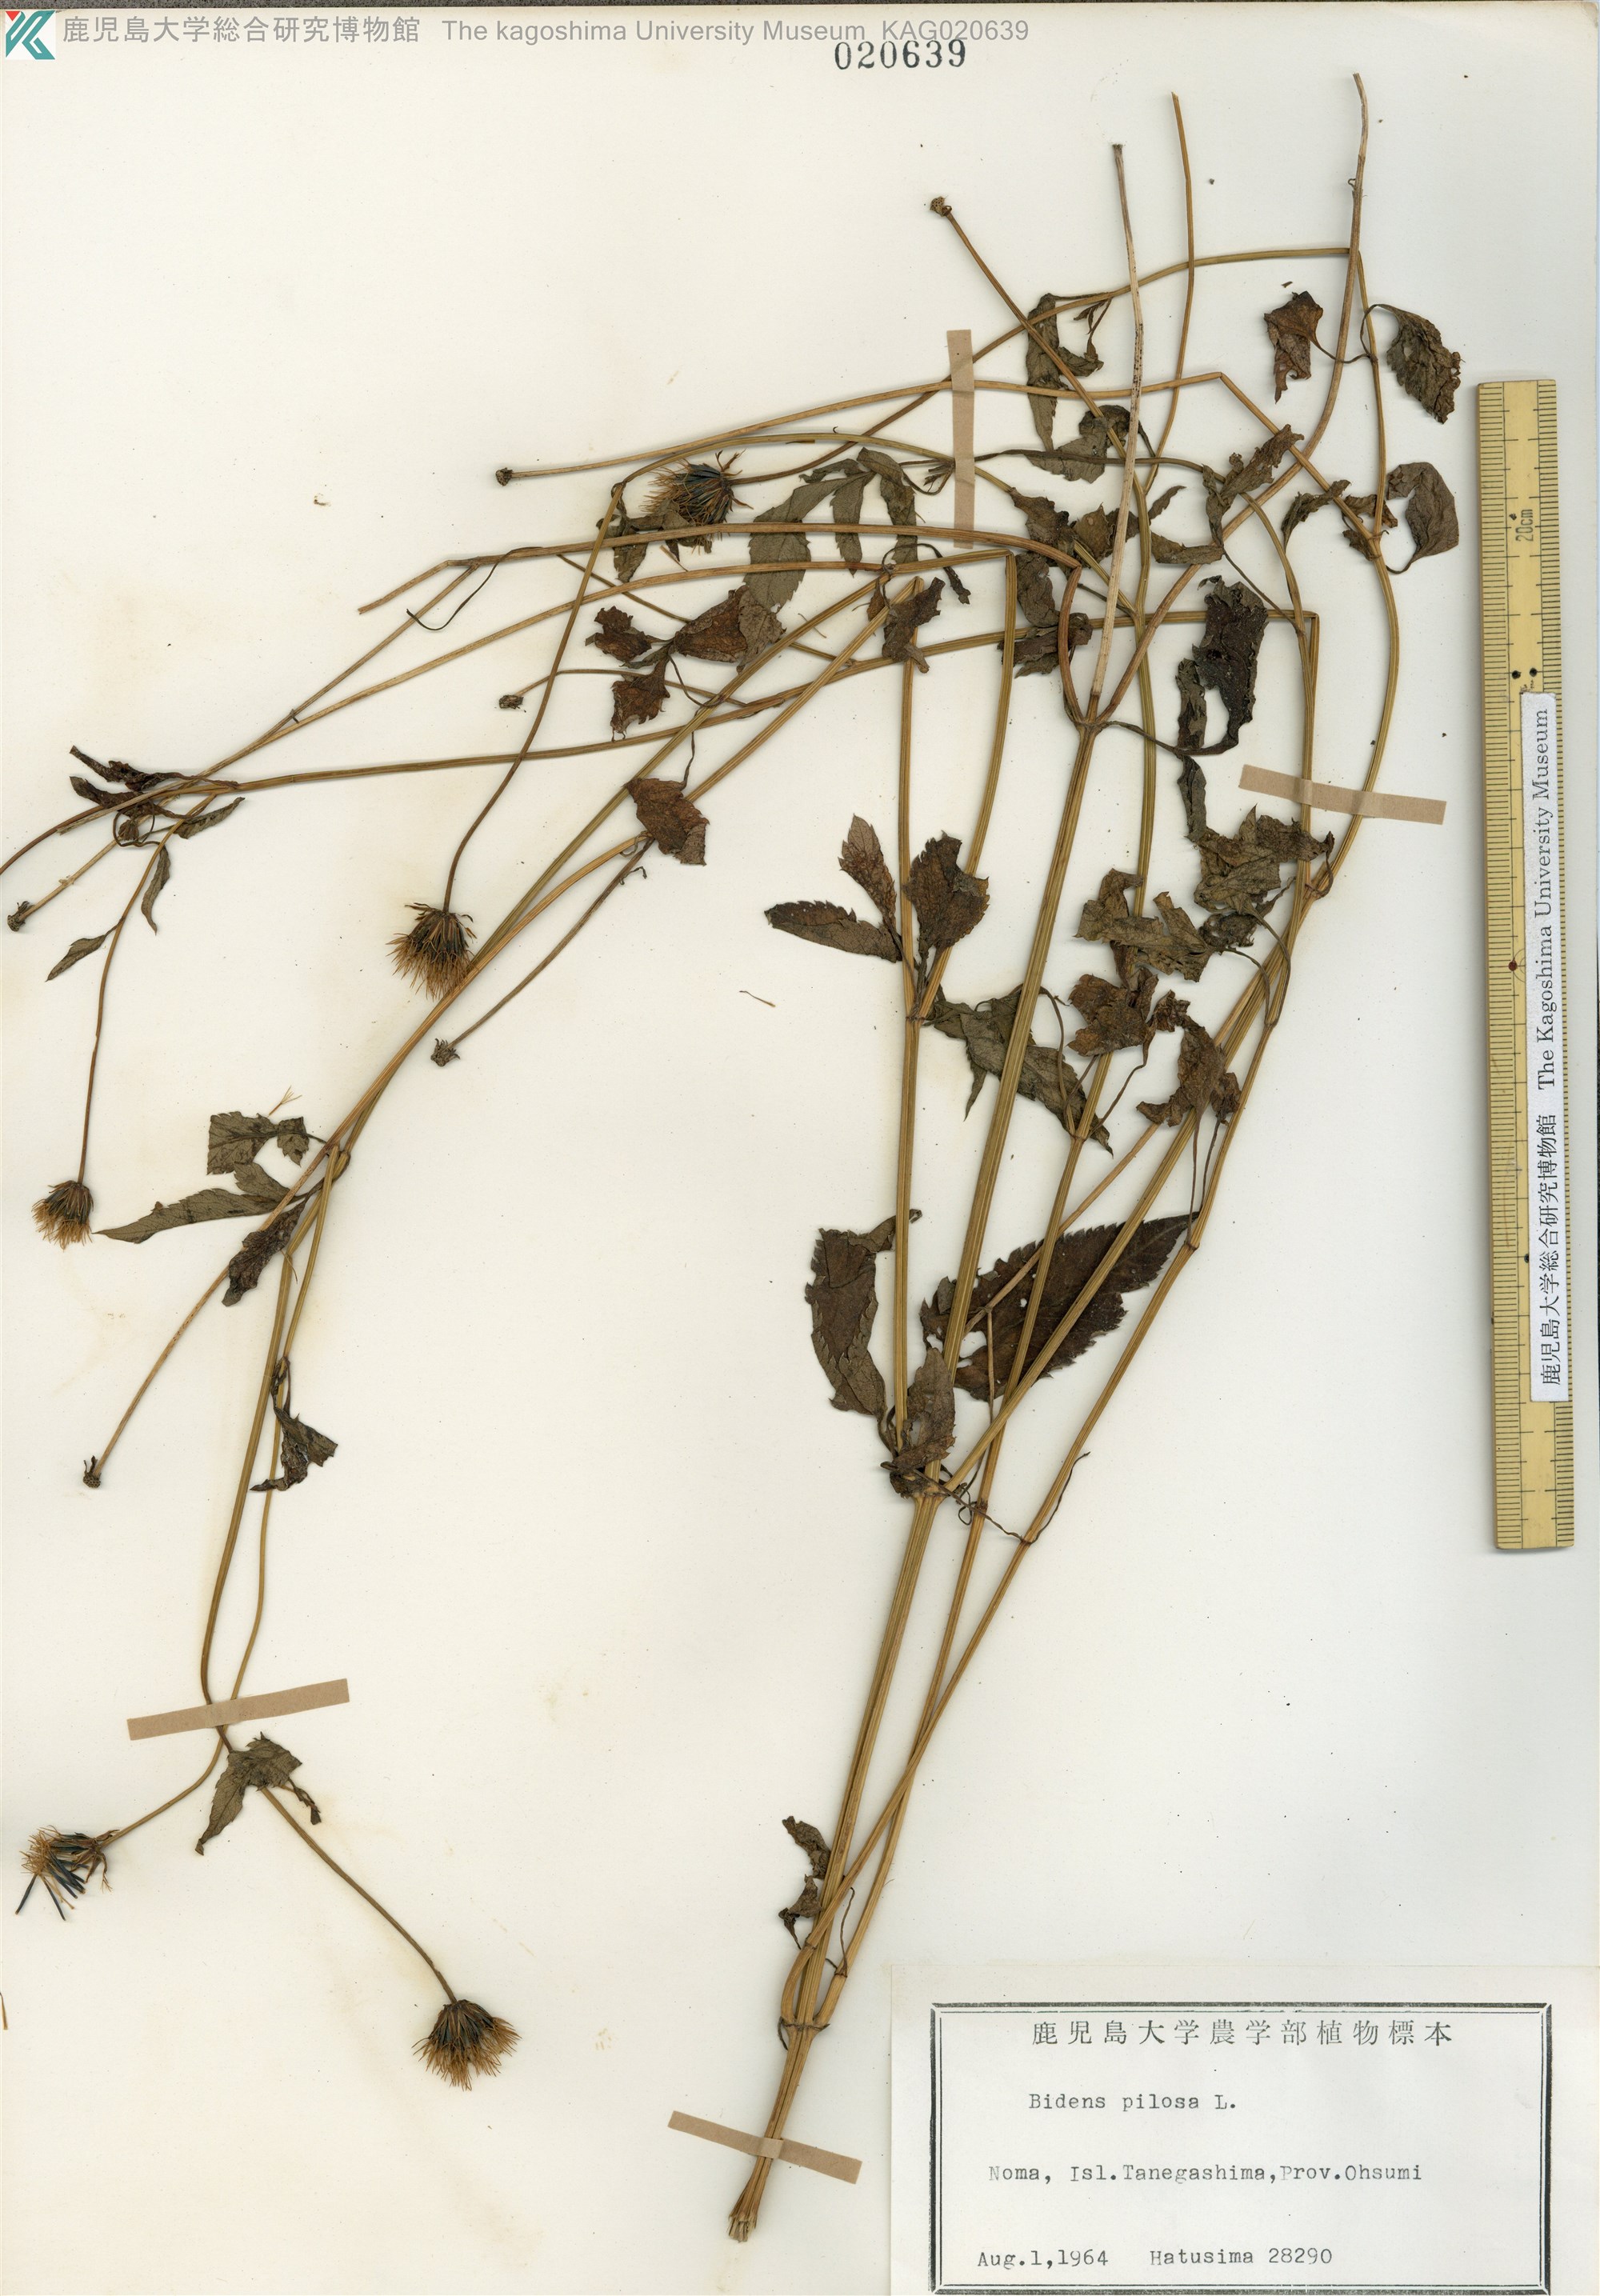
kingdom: Plantae
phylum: Tracheophyta
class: Magnoliopsida
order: Asterales
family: Asteraceae
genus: Bidens
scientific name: Bidens pilosa
